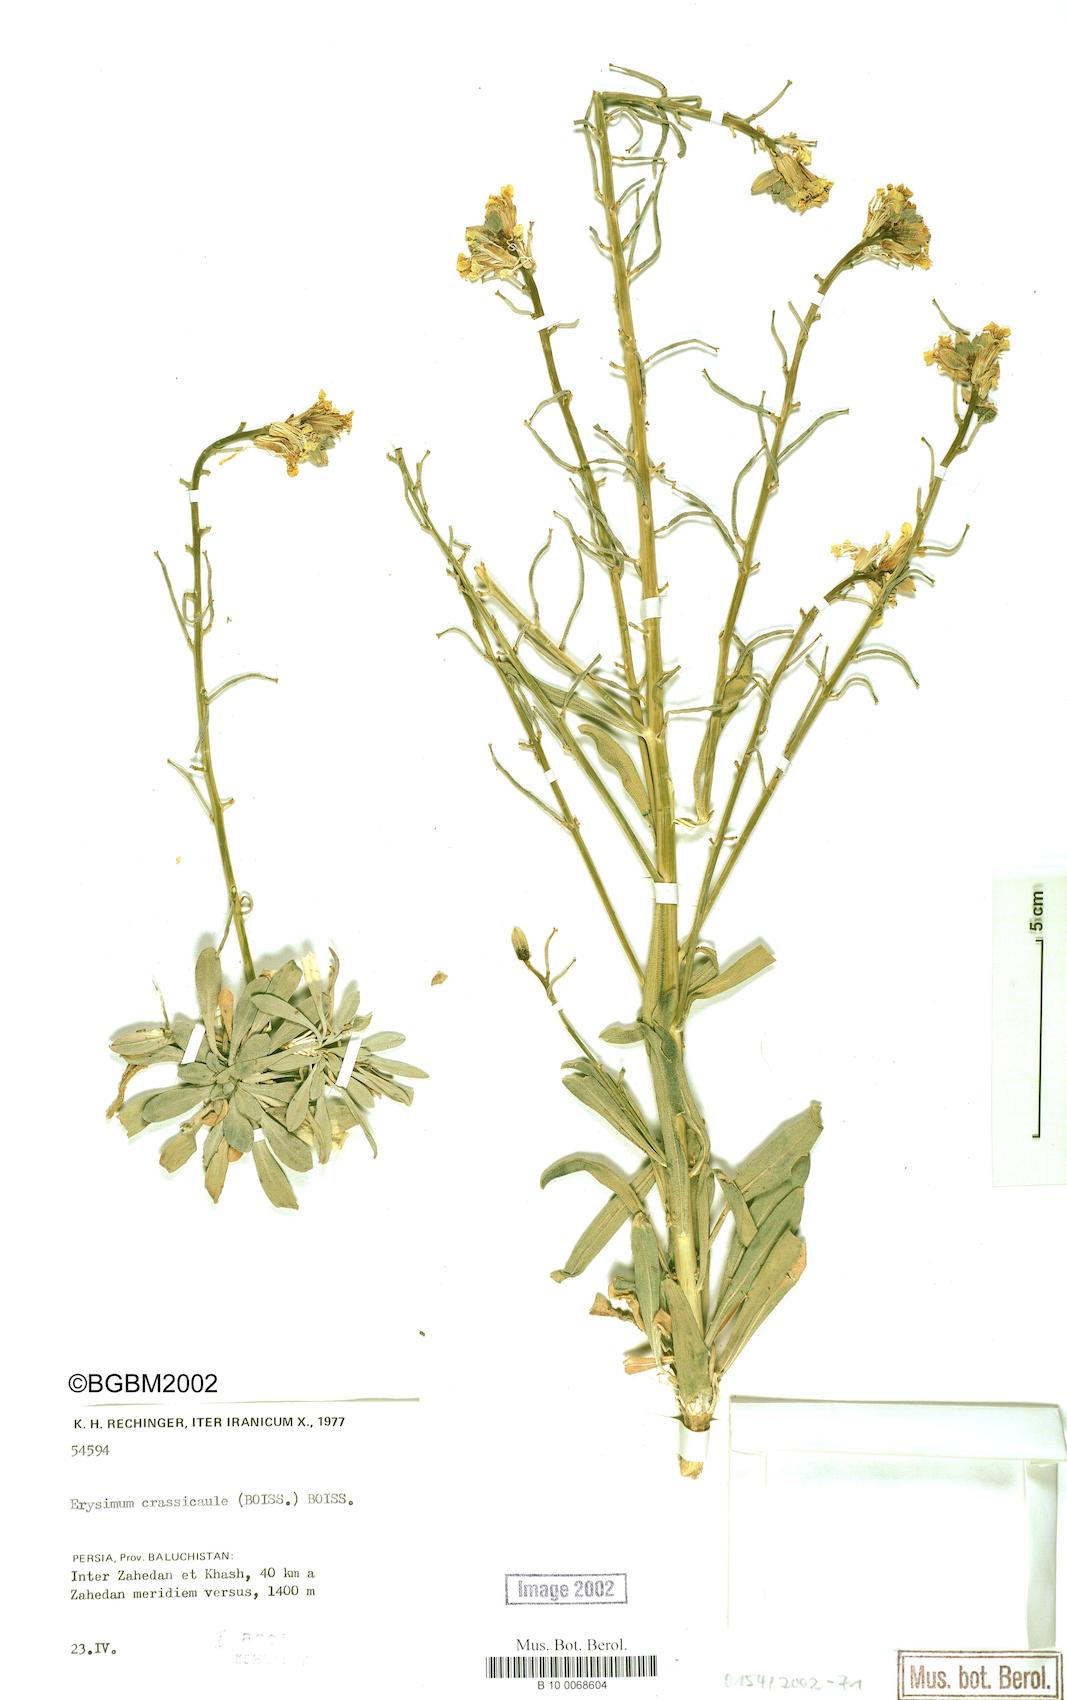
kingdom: Plantae
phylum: Tracheophyta
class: Magnoliopsida
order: Brassicales
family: Brassicaceae
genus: Erysimum
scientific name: Erysimum crassicaule
